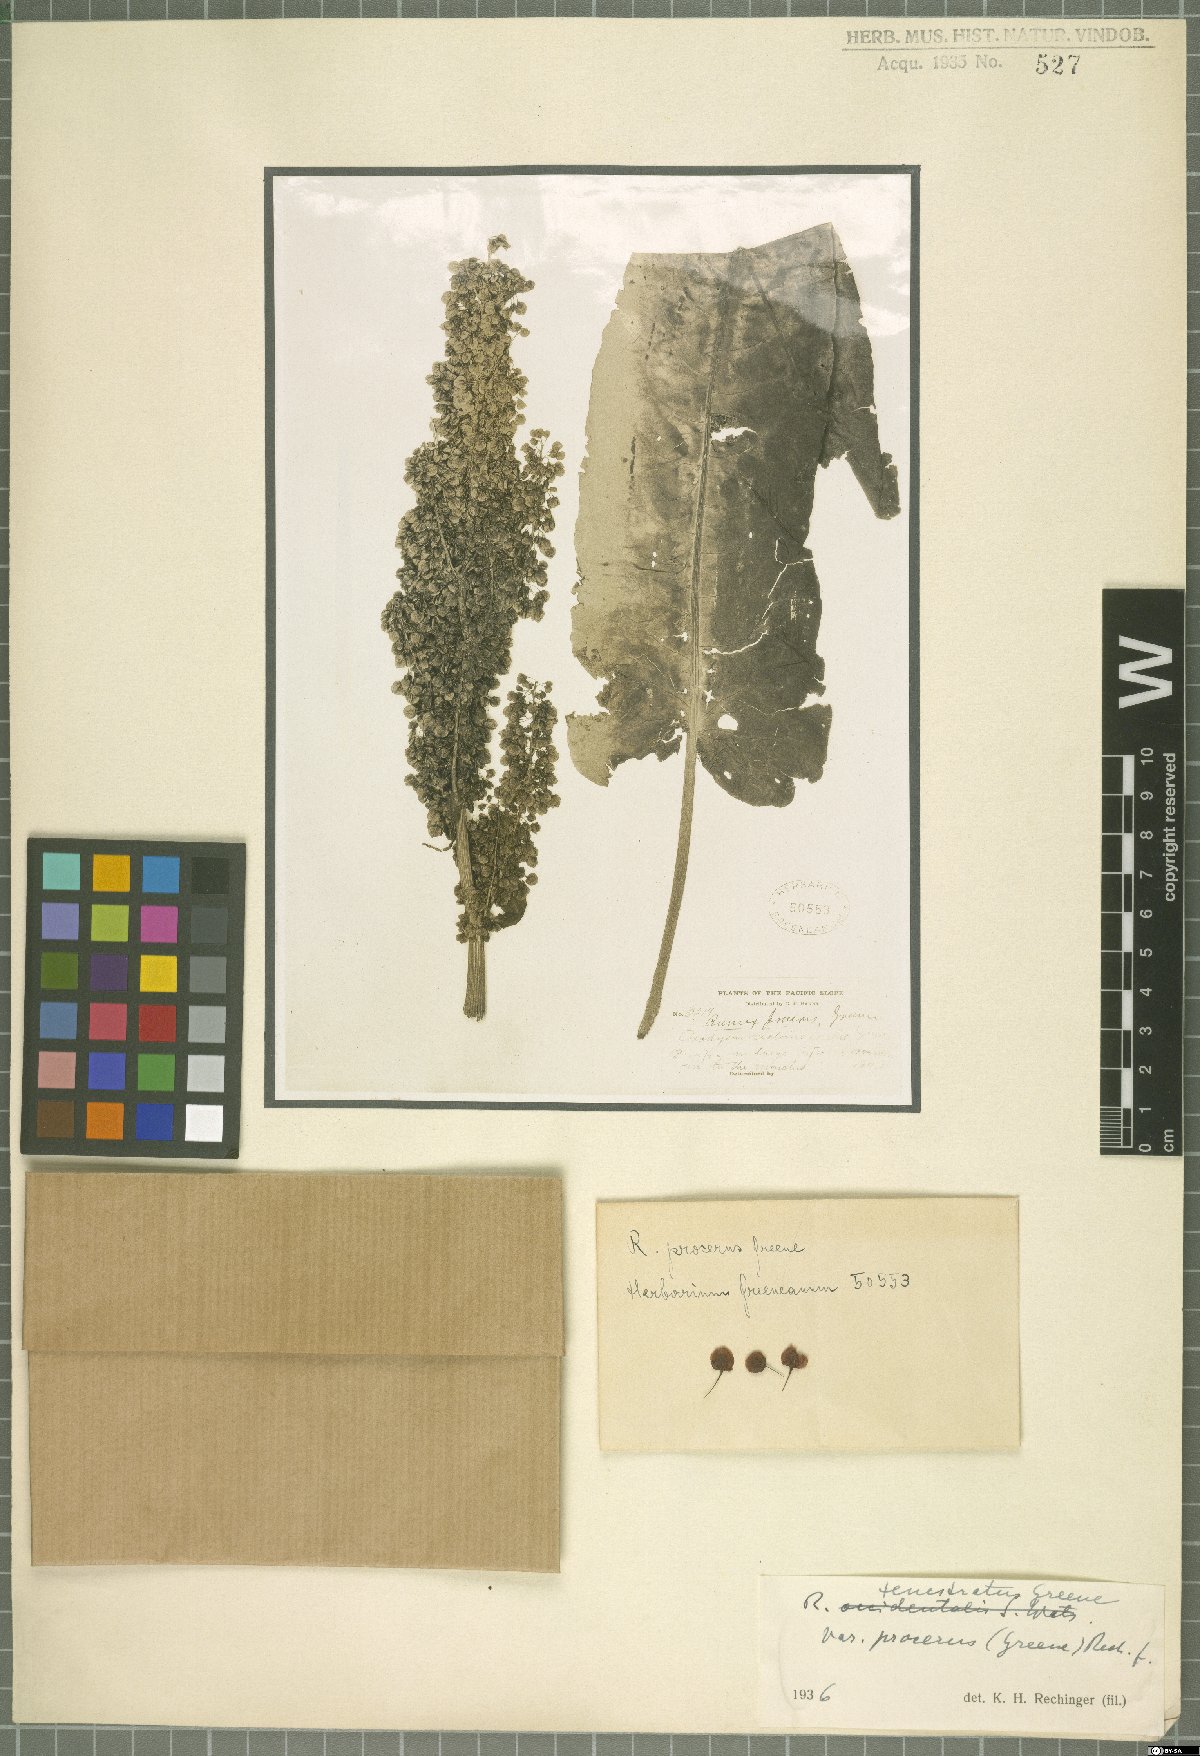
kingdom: Plantae
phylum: Tracheophyta
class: Magnoliopsida
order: Caryophyllales
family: Polygonaceae
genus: Rumex
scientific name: Rumex occidentalis
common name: Western dock
